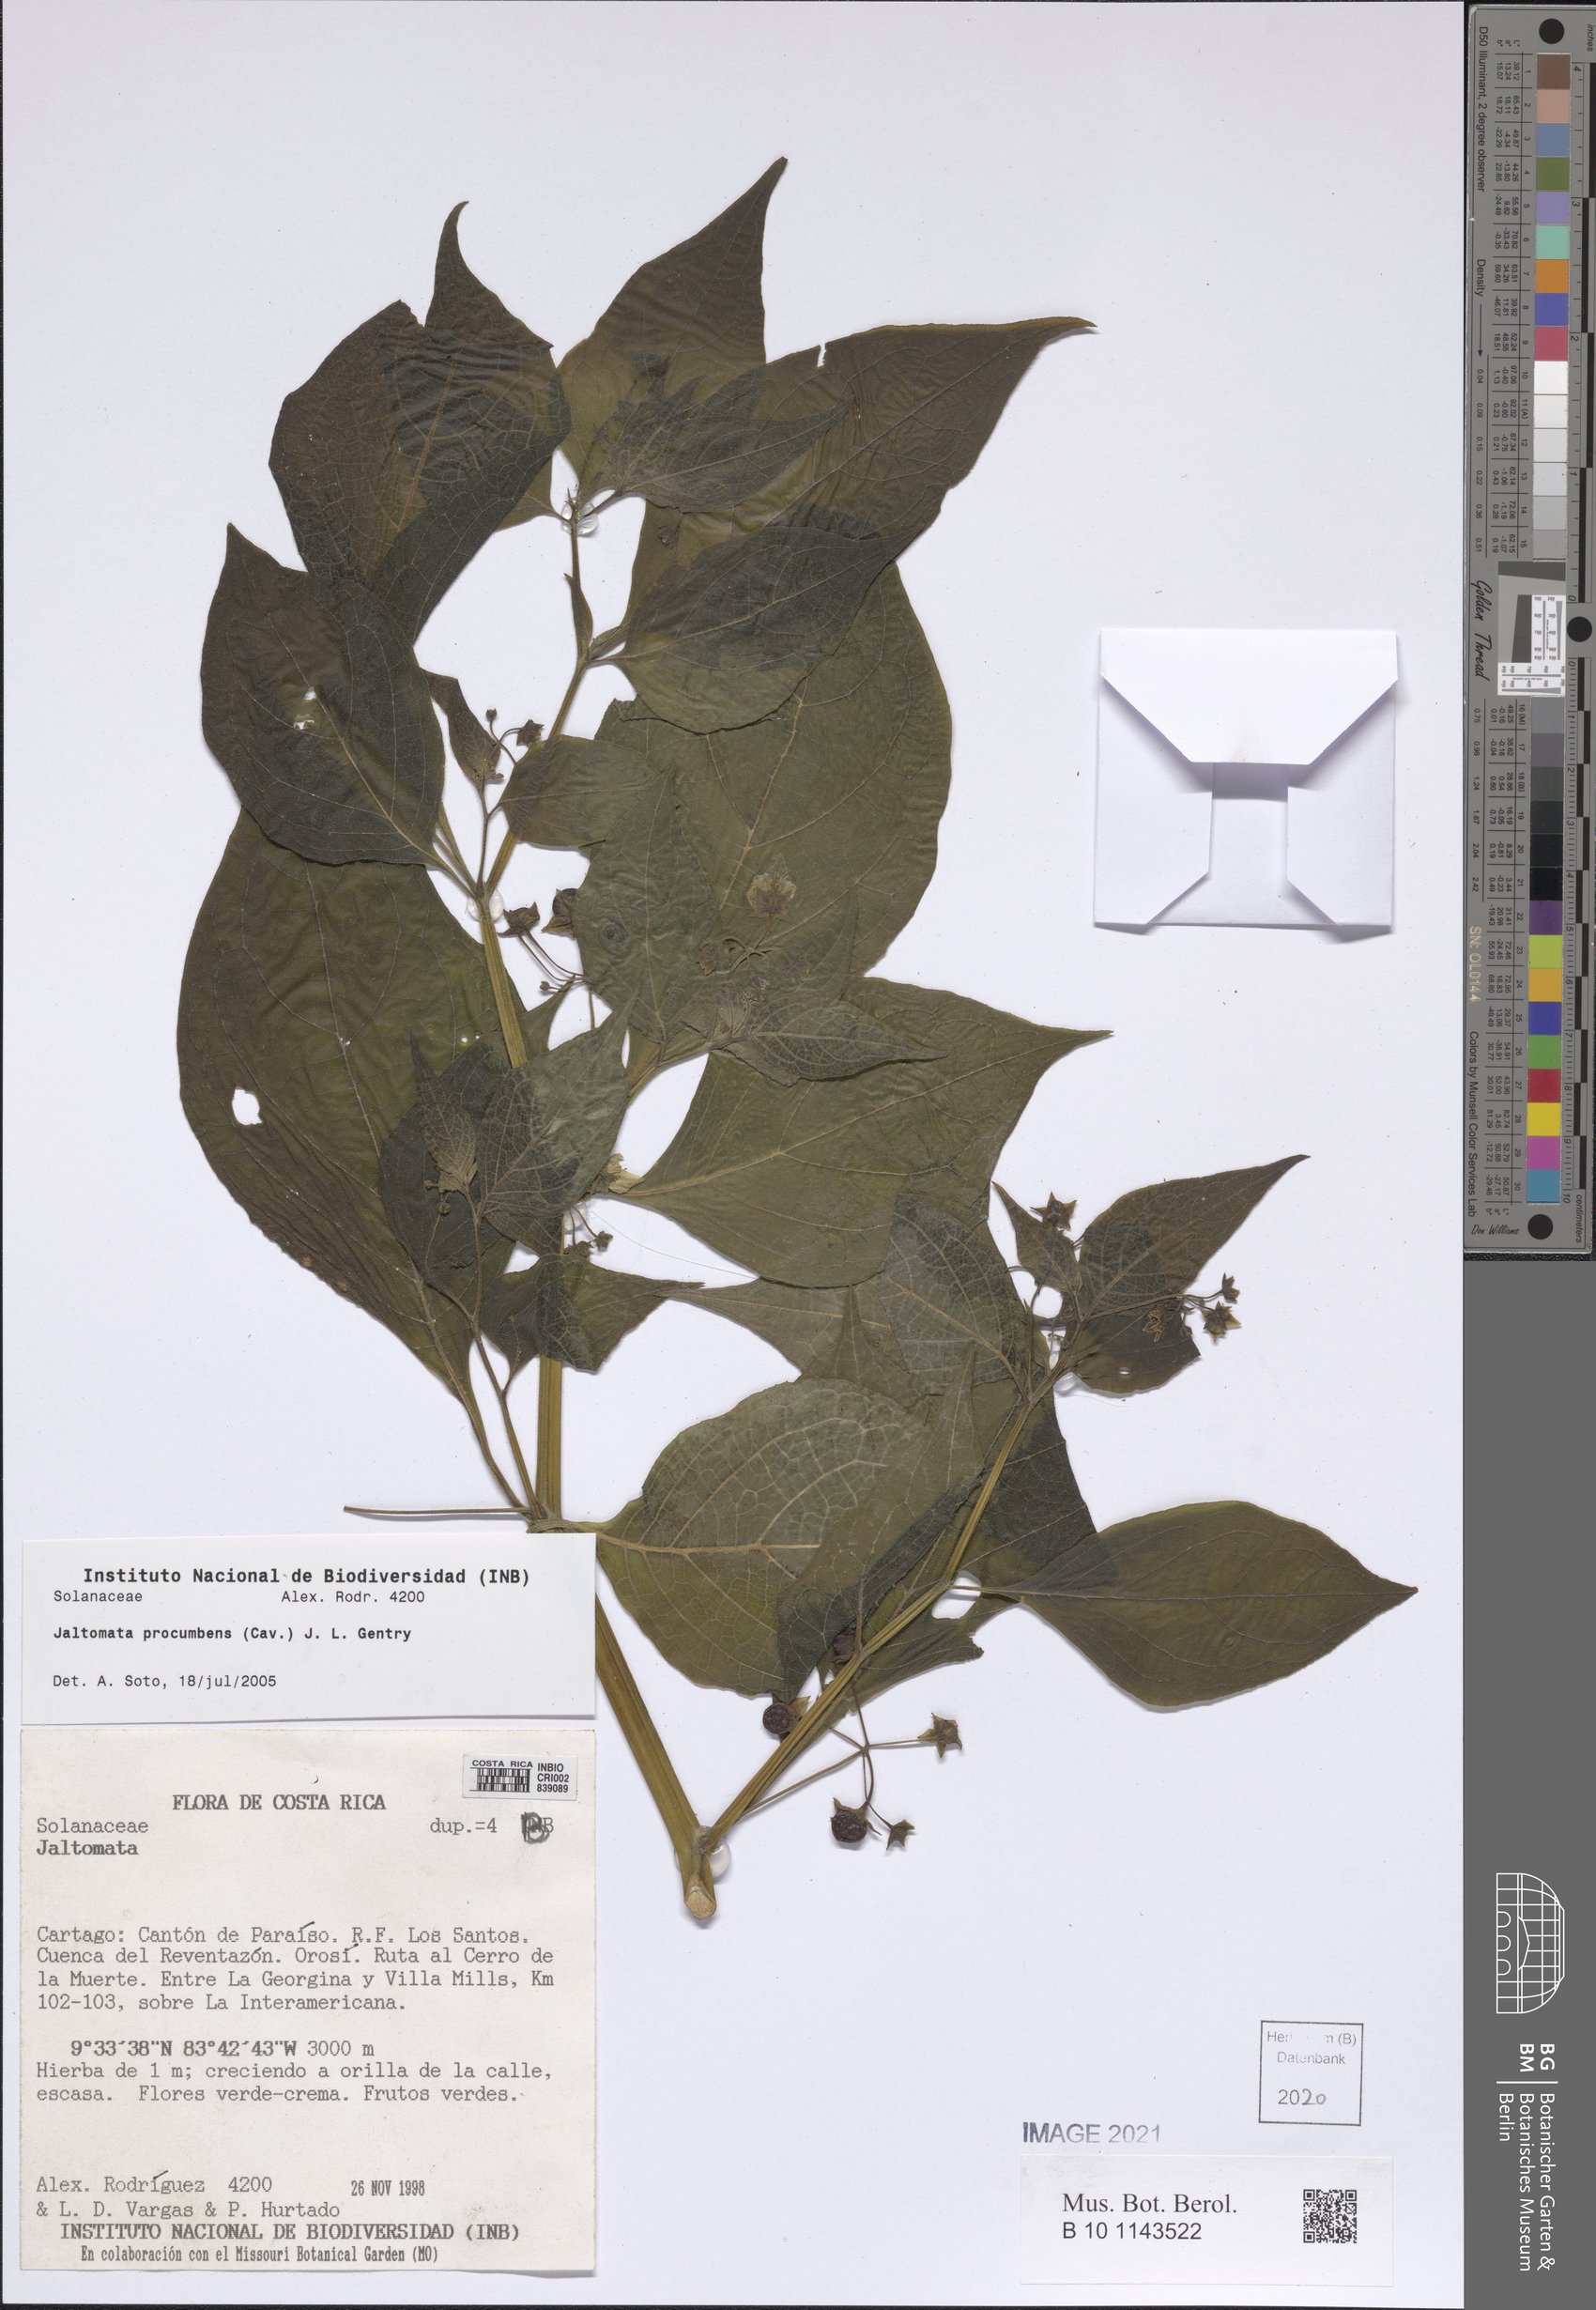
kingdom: Plantae
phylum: Tracheophyta
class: Magnoliopsida
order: Solanales
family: Solanaceae
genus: Jaltomata
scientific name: Jaltomata procumbens
